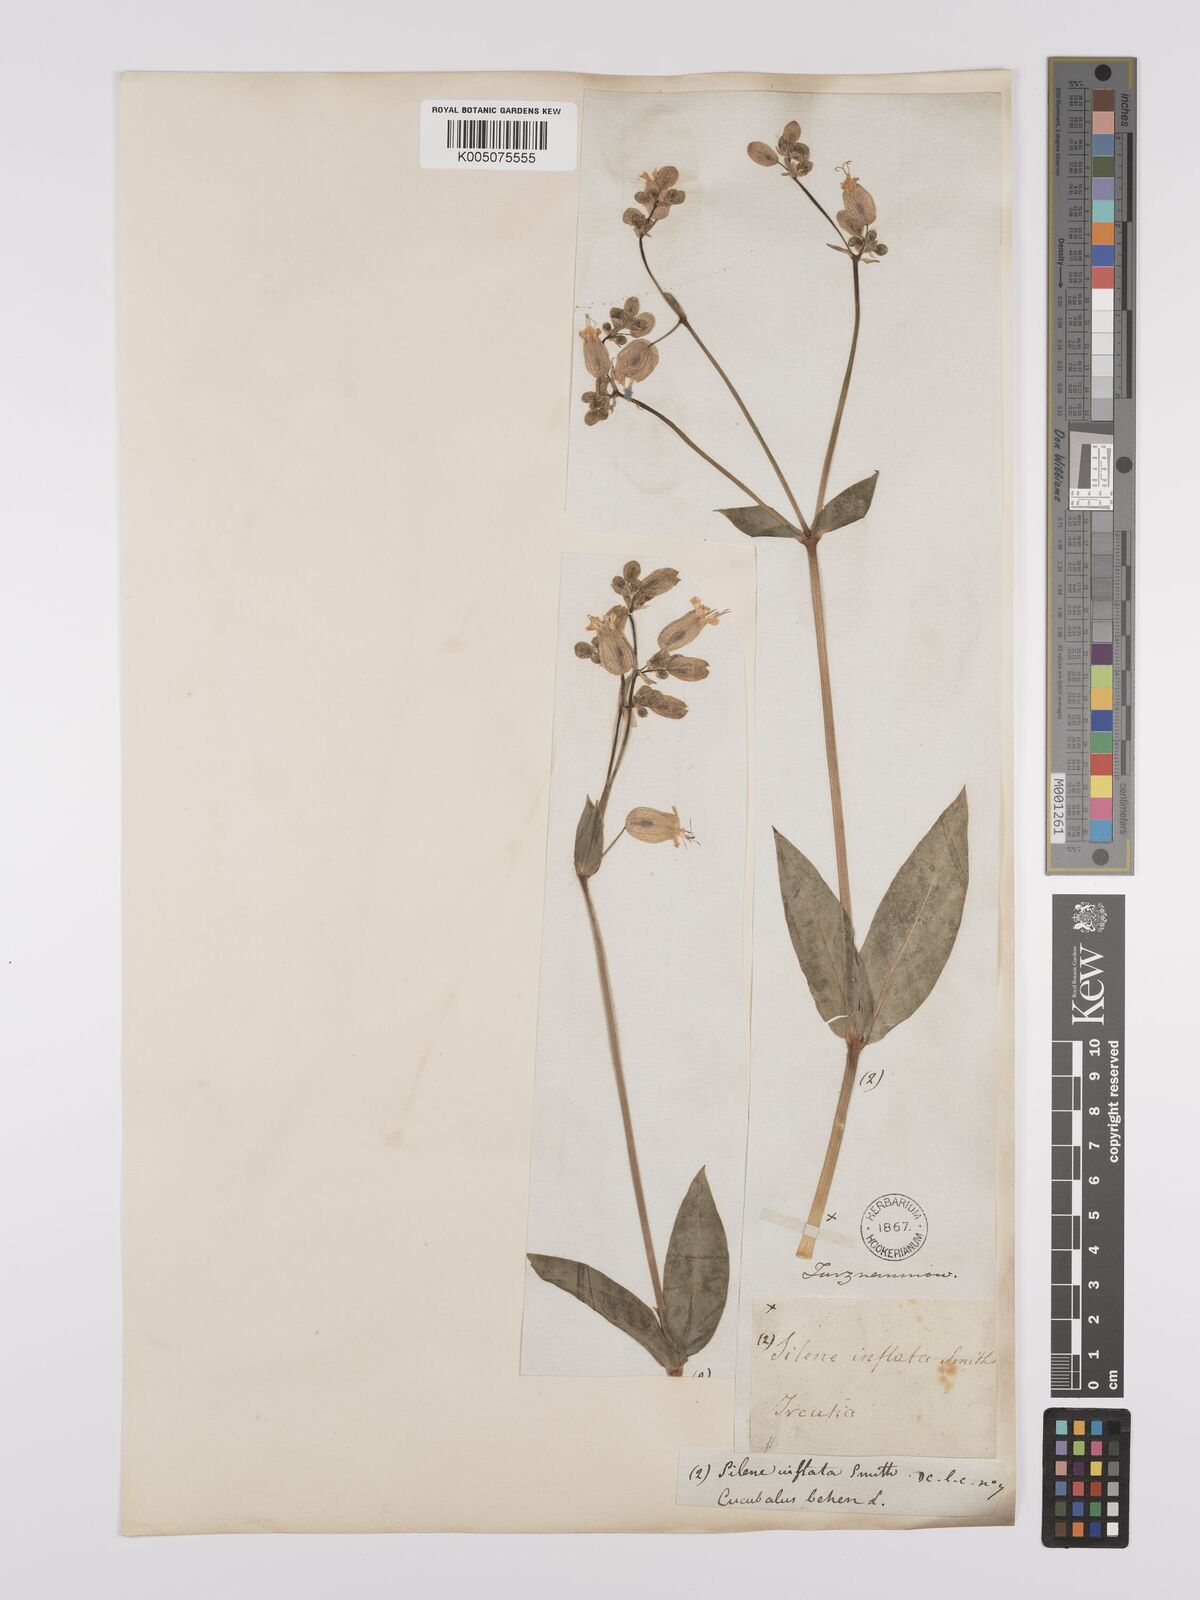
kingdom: Plantae
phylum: Tracheophyta
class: Magnoliopsida
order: Caryophyllales
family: Caryophyllaceae
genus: Silene
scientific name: Silene vulgaris
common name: Bladder campion
